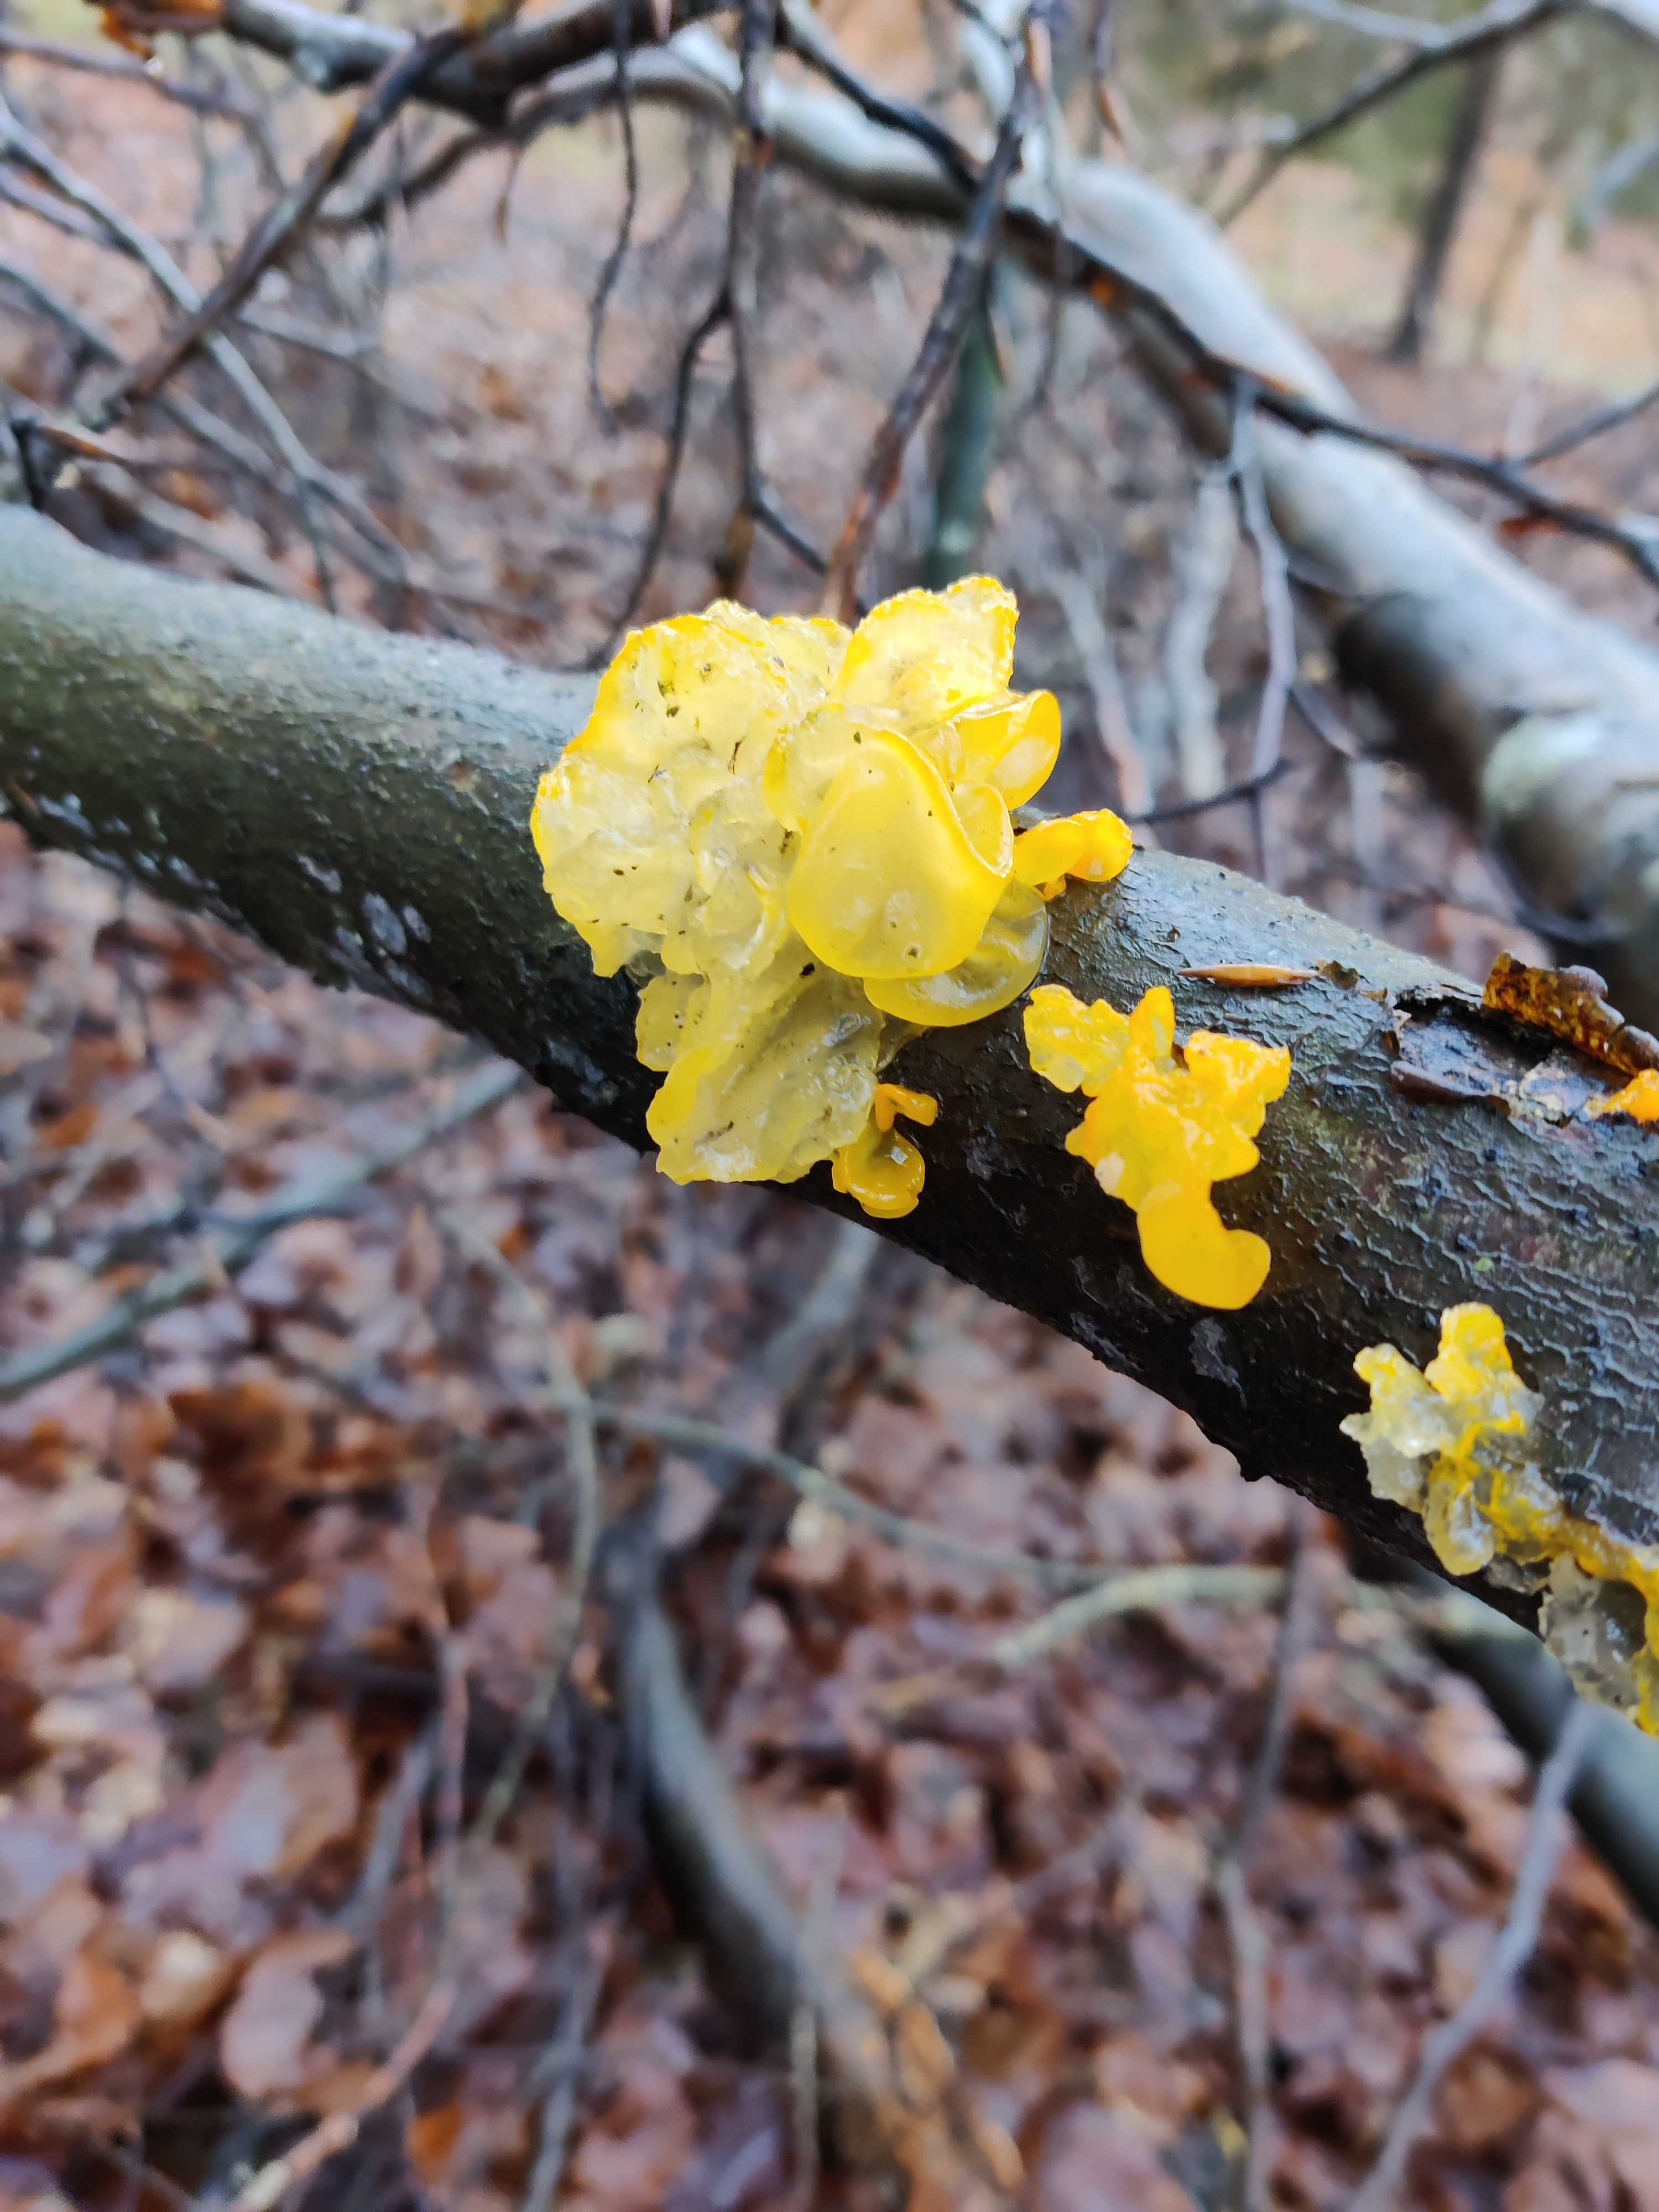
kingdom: Fungi
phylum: Basidiomycota
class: Tremellomycetes
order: Tremellales
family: Tremellaceae
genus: Tremella
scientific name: Tremella mesenterica
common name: gul bævresvamp
